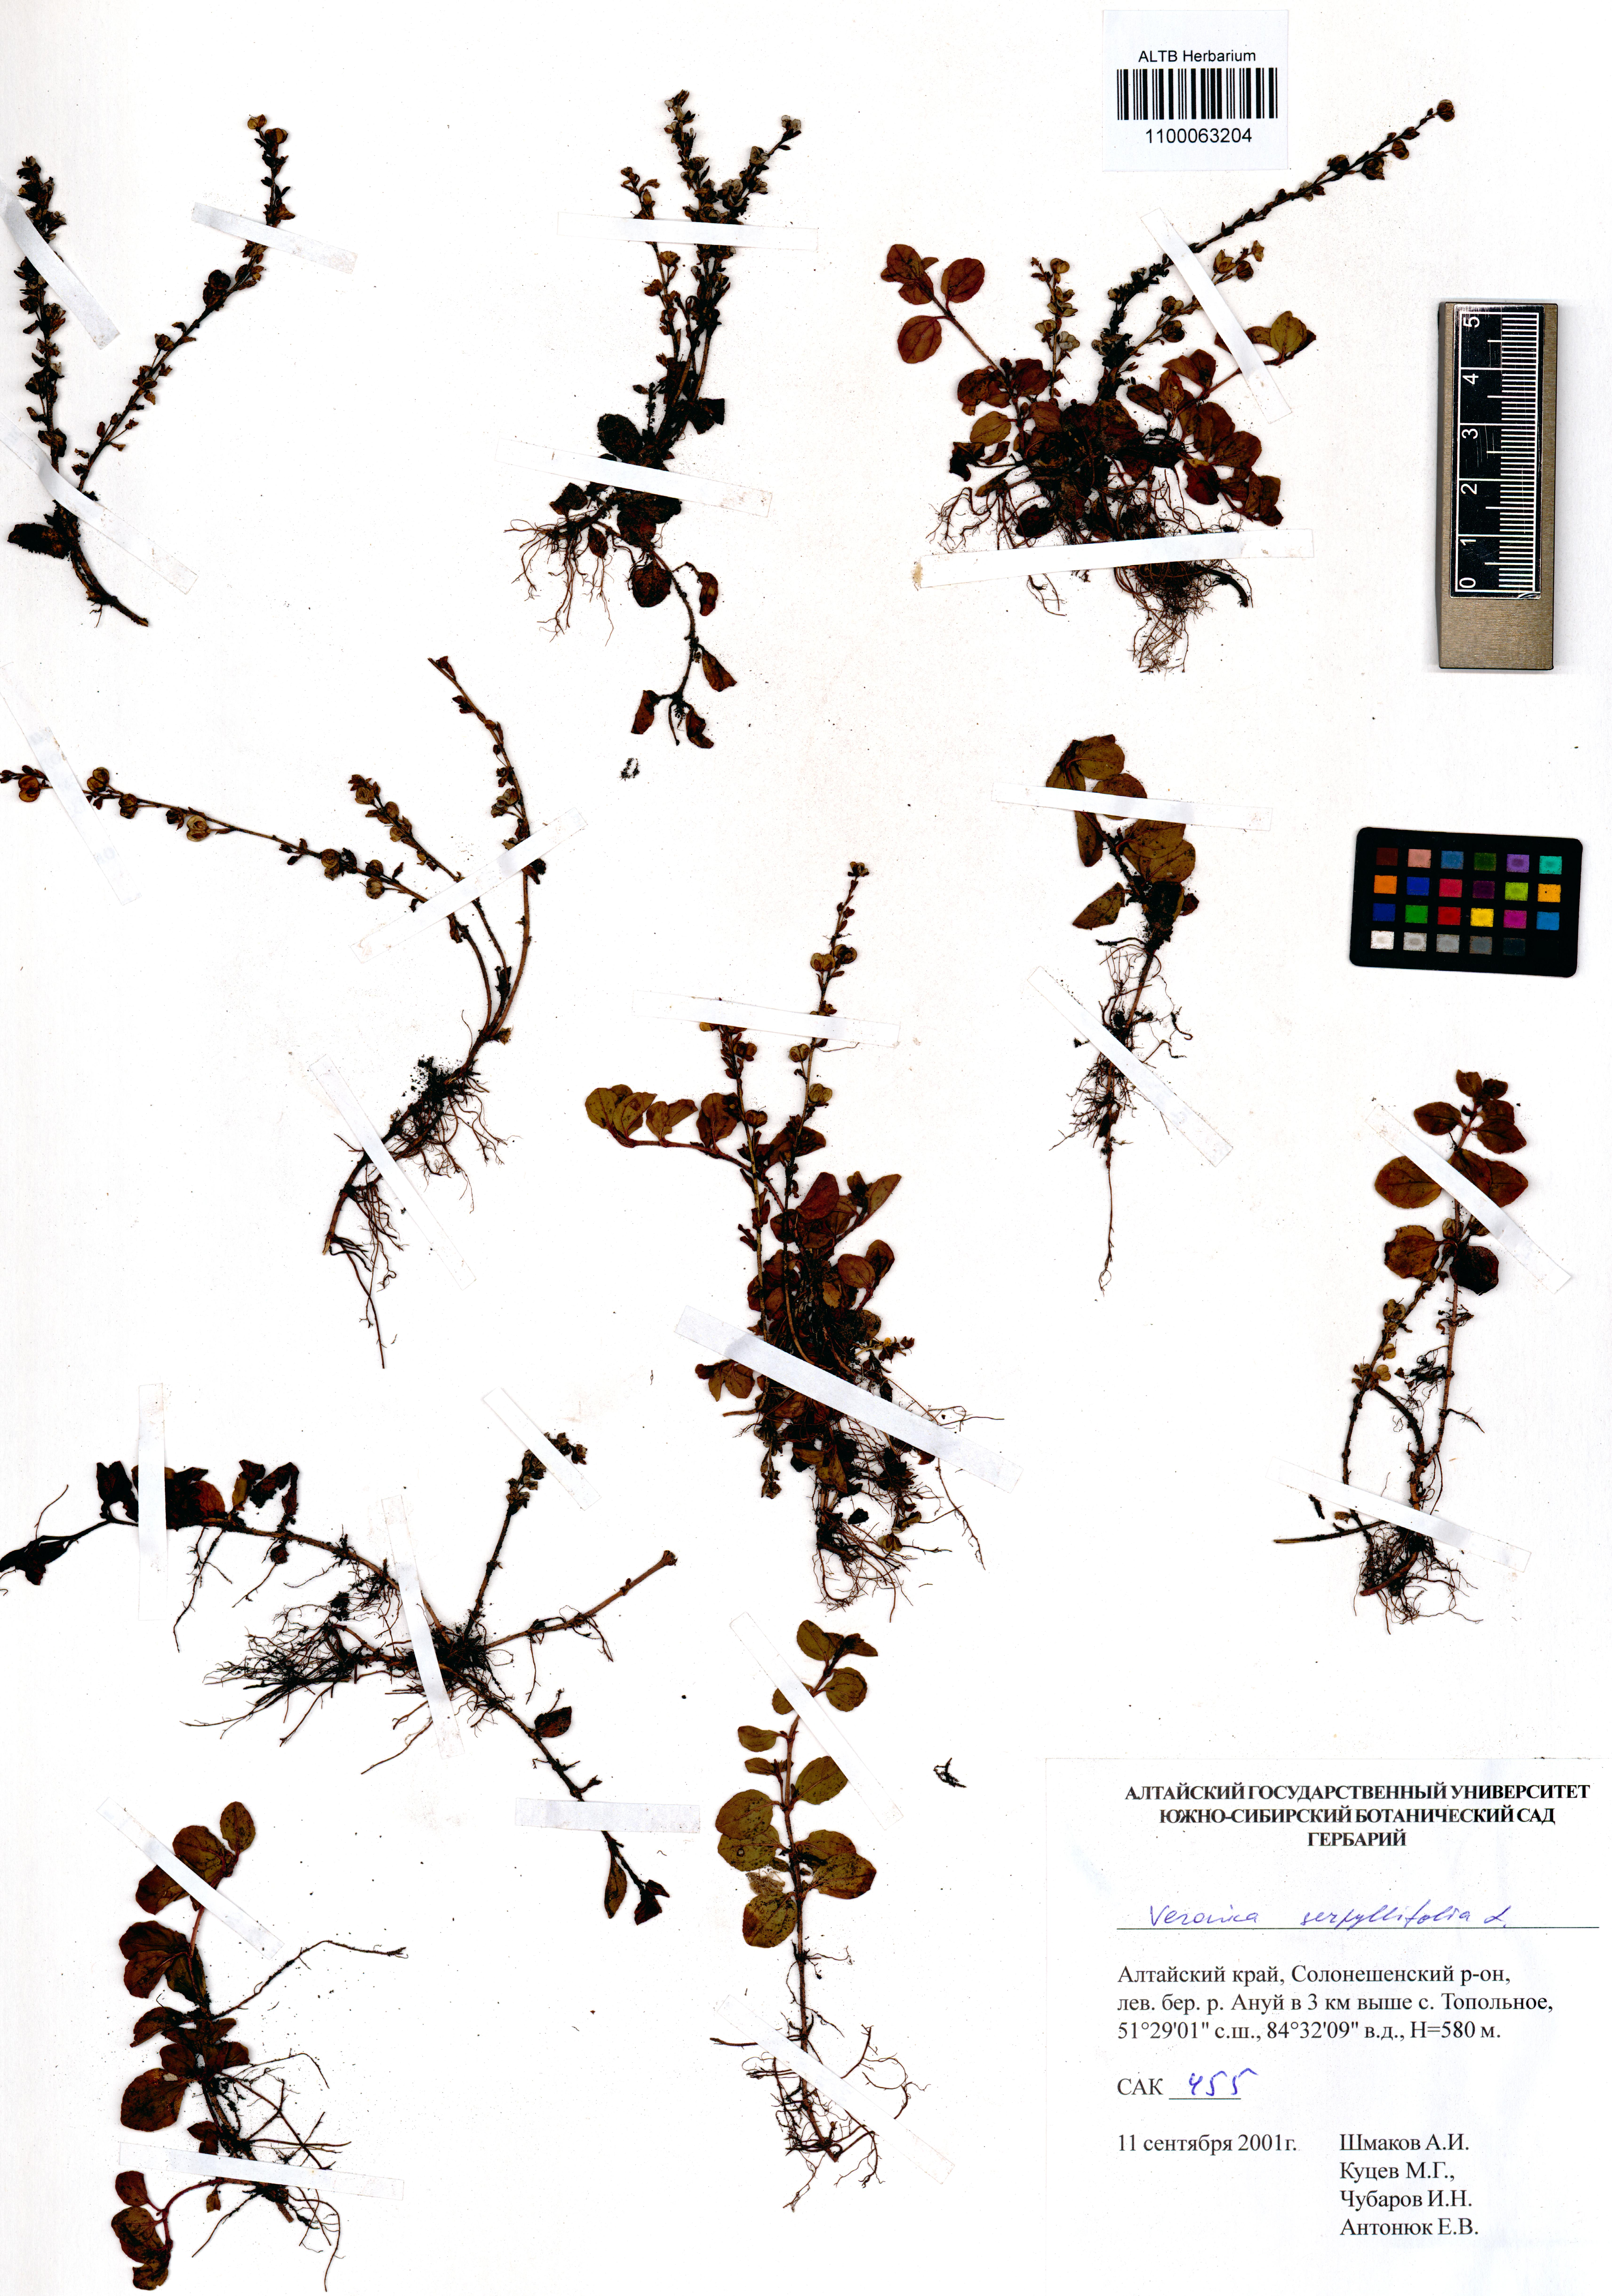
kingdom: Plantae
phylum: Tracheophyta
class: Magnoliopsida
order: Lamiales
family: Plantaginaceae
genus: Veronica
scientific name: Veronica serpyllifolia
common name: Thyme-leaved speedwell
